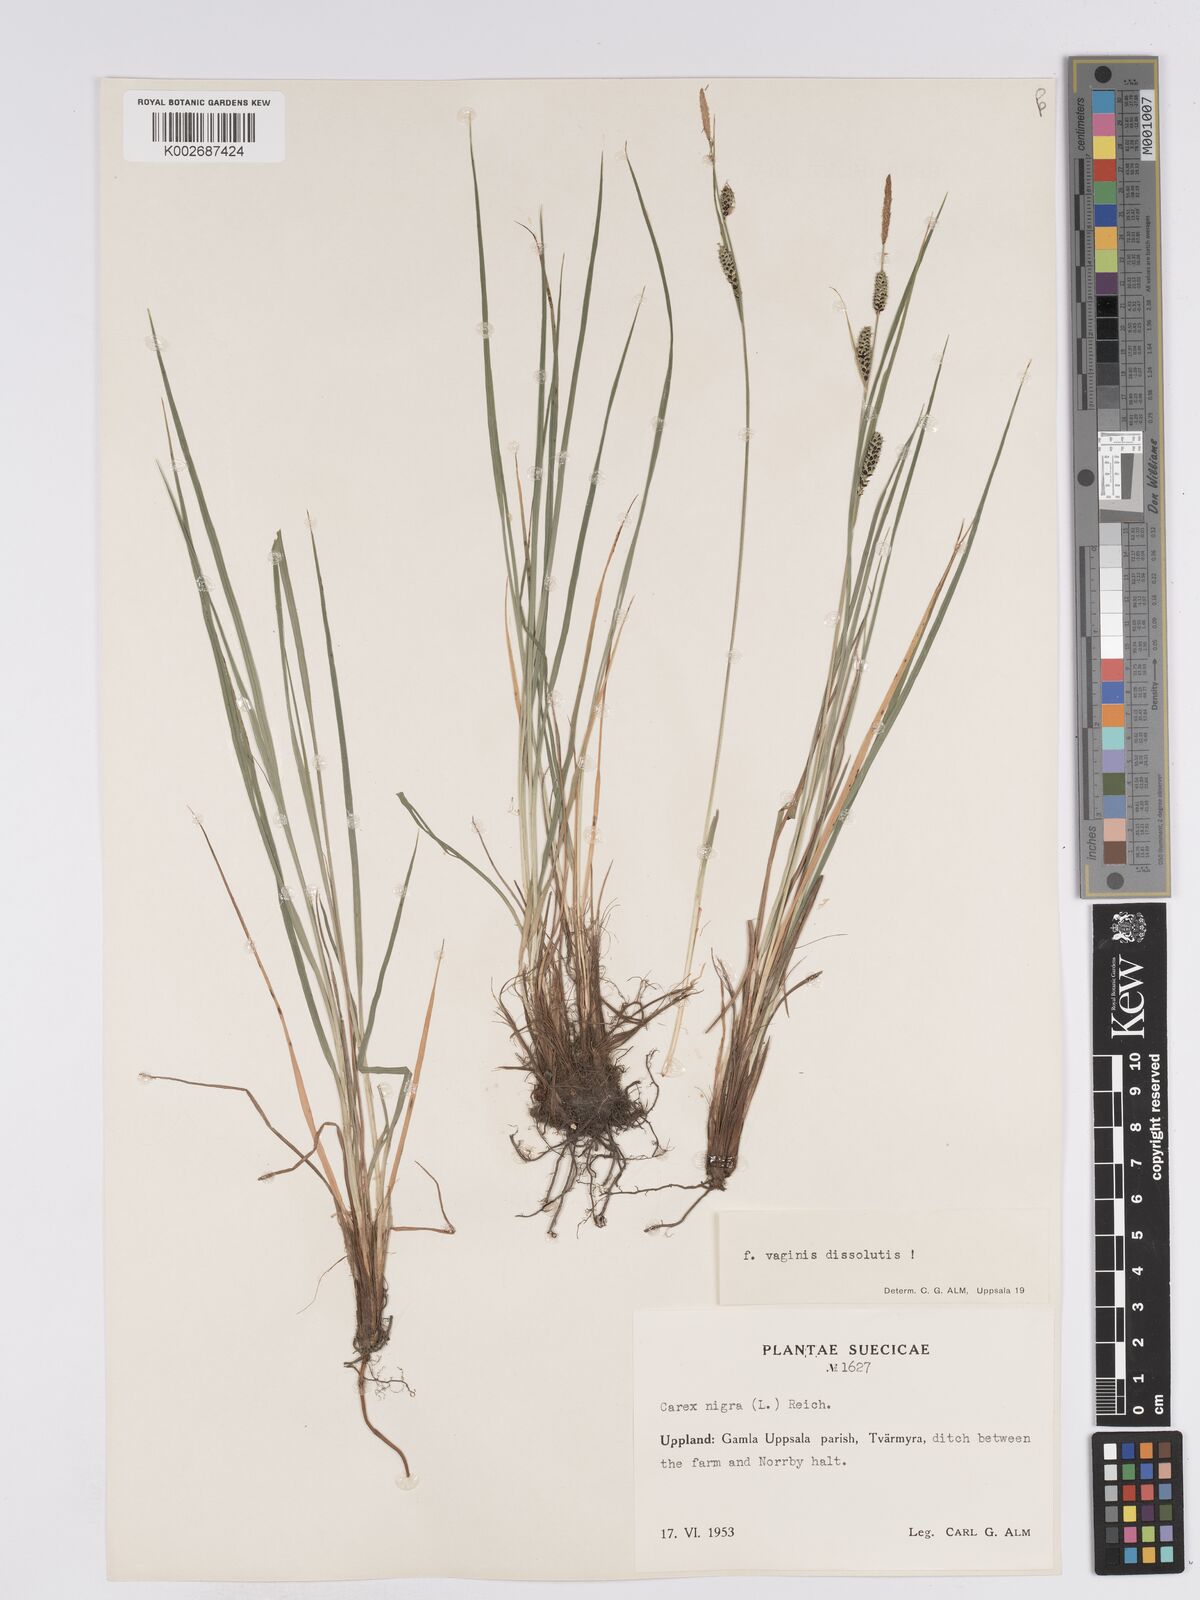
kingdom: Plantae
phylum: Tracheophyta
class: Liliopsida
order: Poales
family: Cyperaceae
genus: Carex
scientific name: Carex nigra
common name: Common sedge
